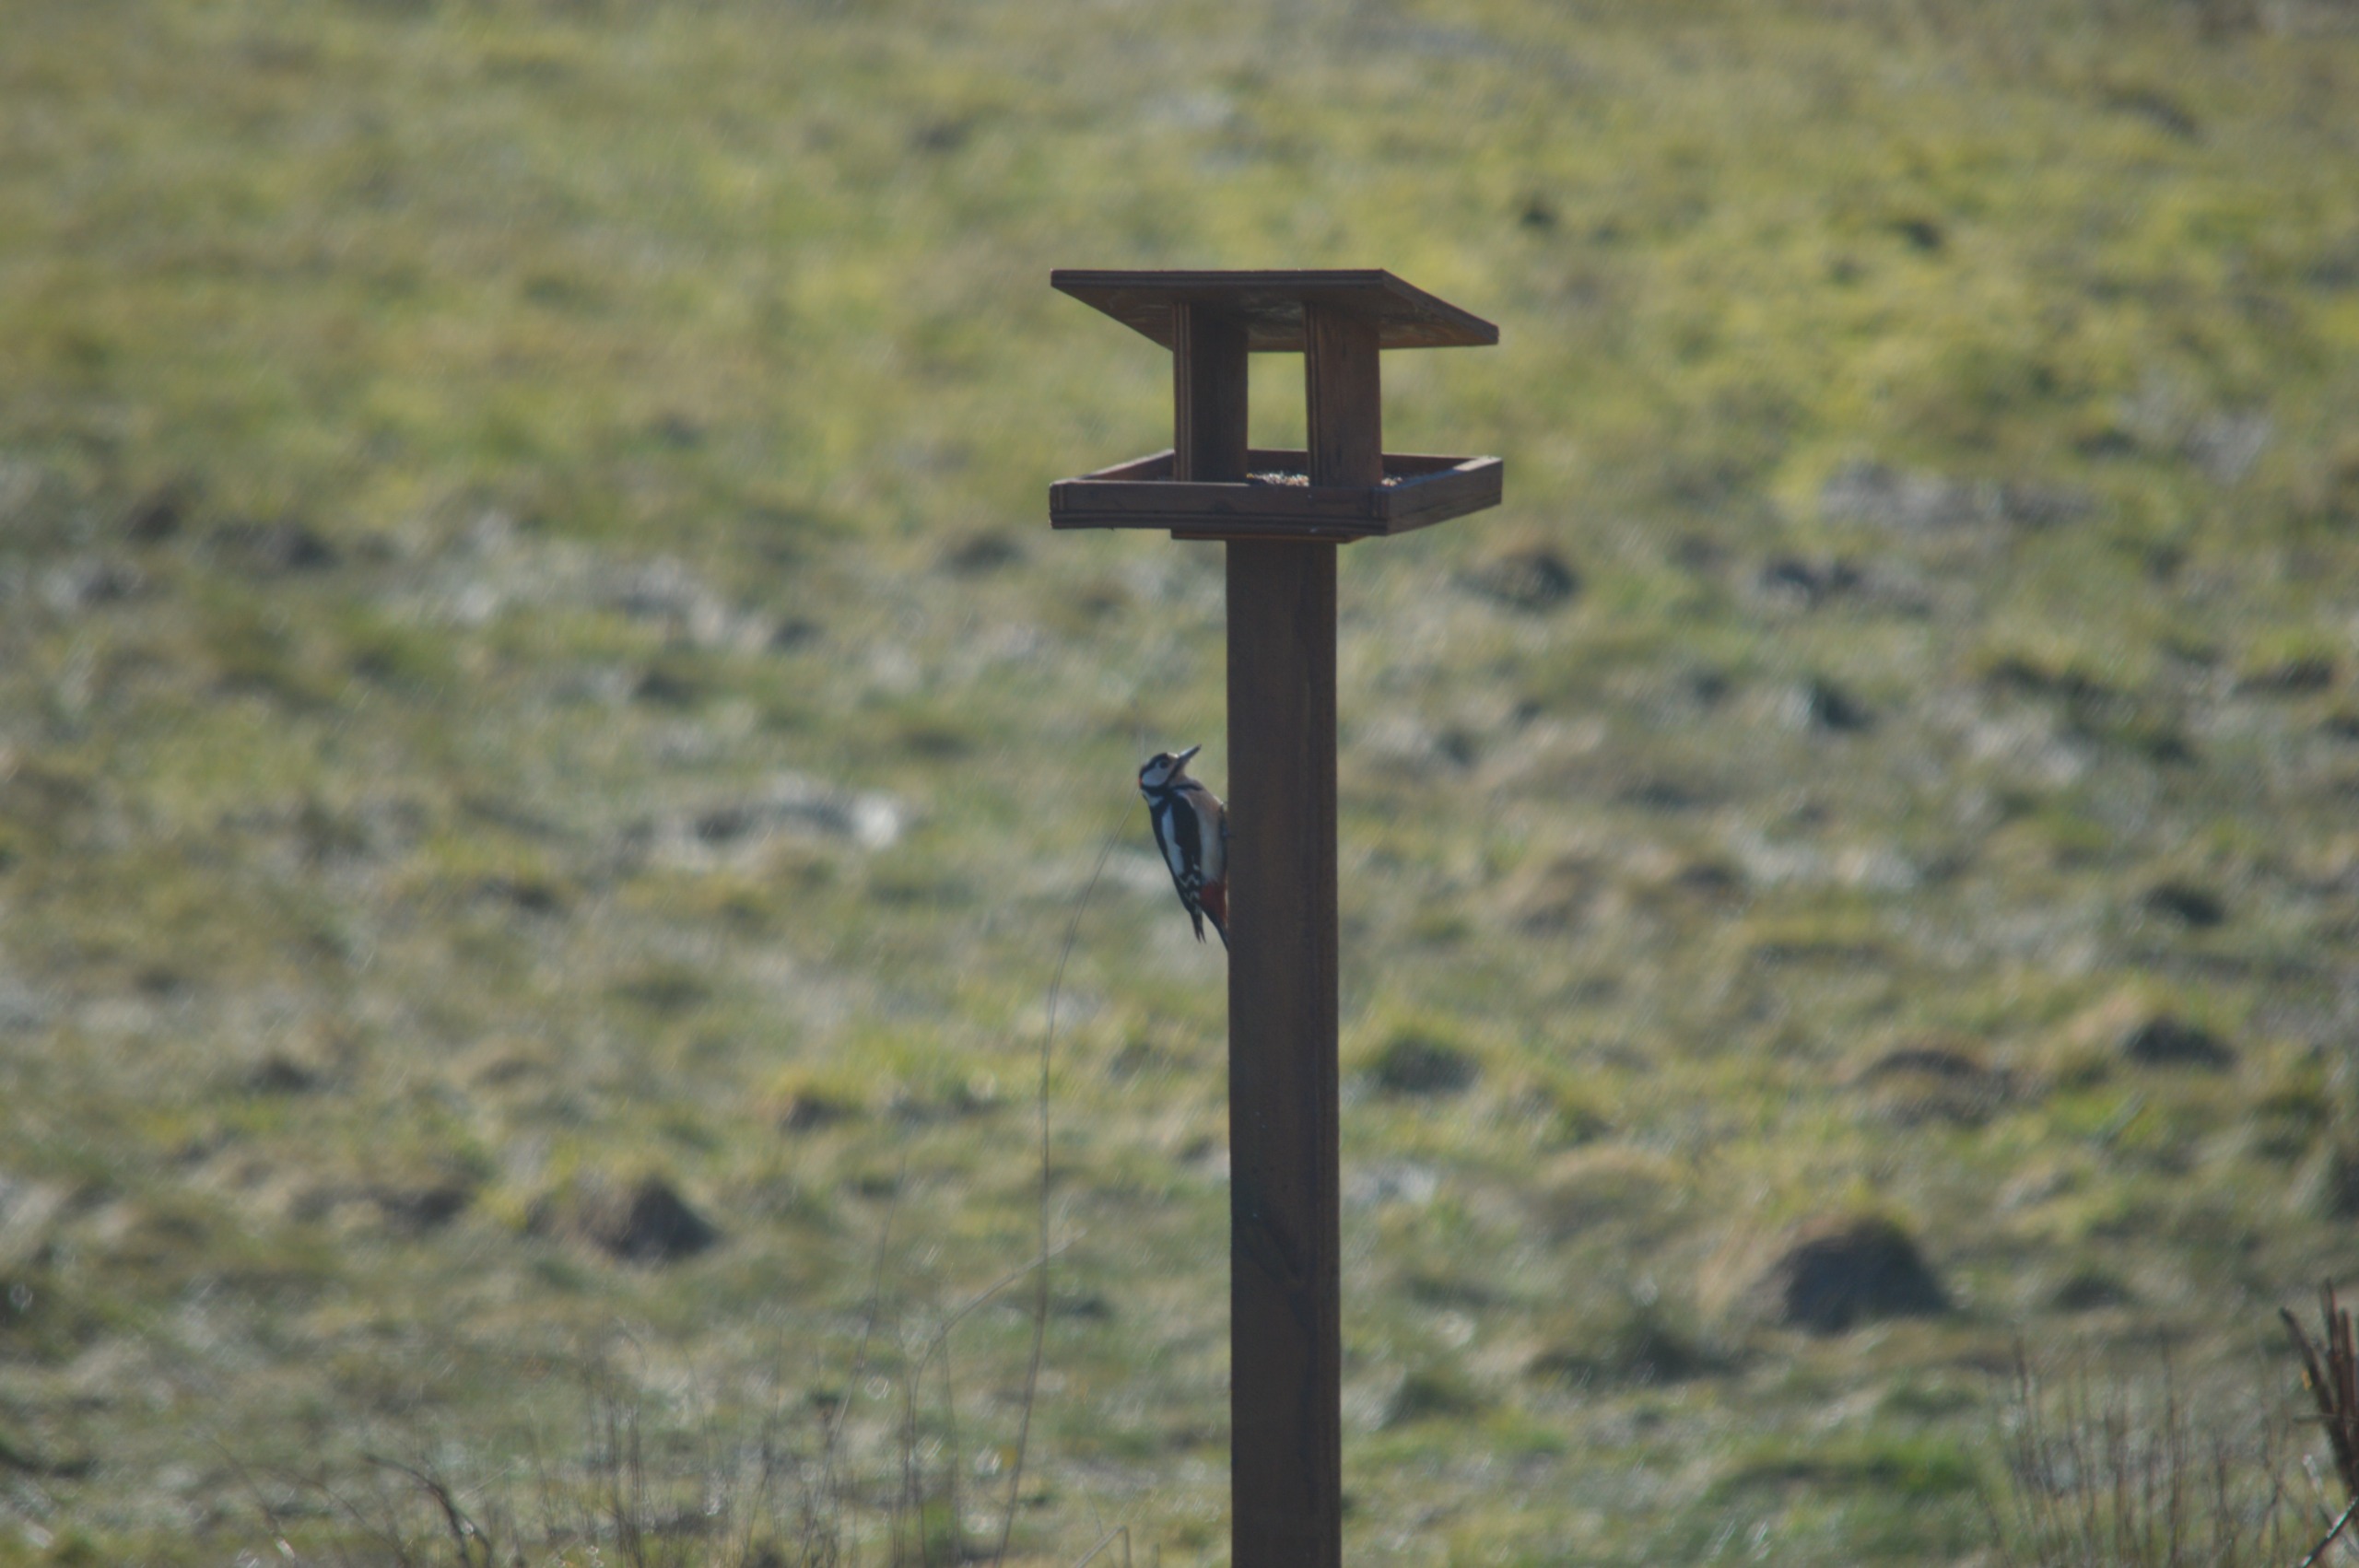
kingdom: Animalia
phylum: Chordata
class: Aves
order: Piciformes
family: Picidae
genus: Dendrocopos
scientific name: Dendrocopos major
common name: Stor flagspætte
